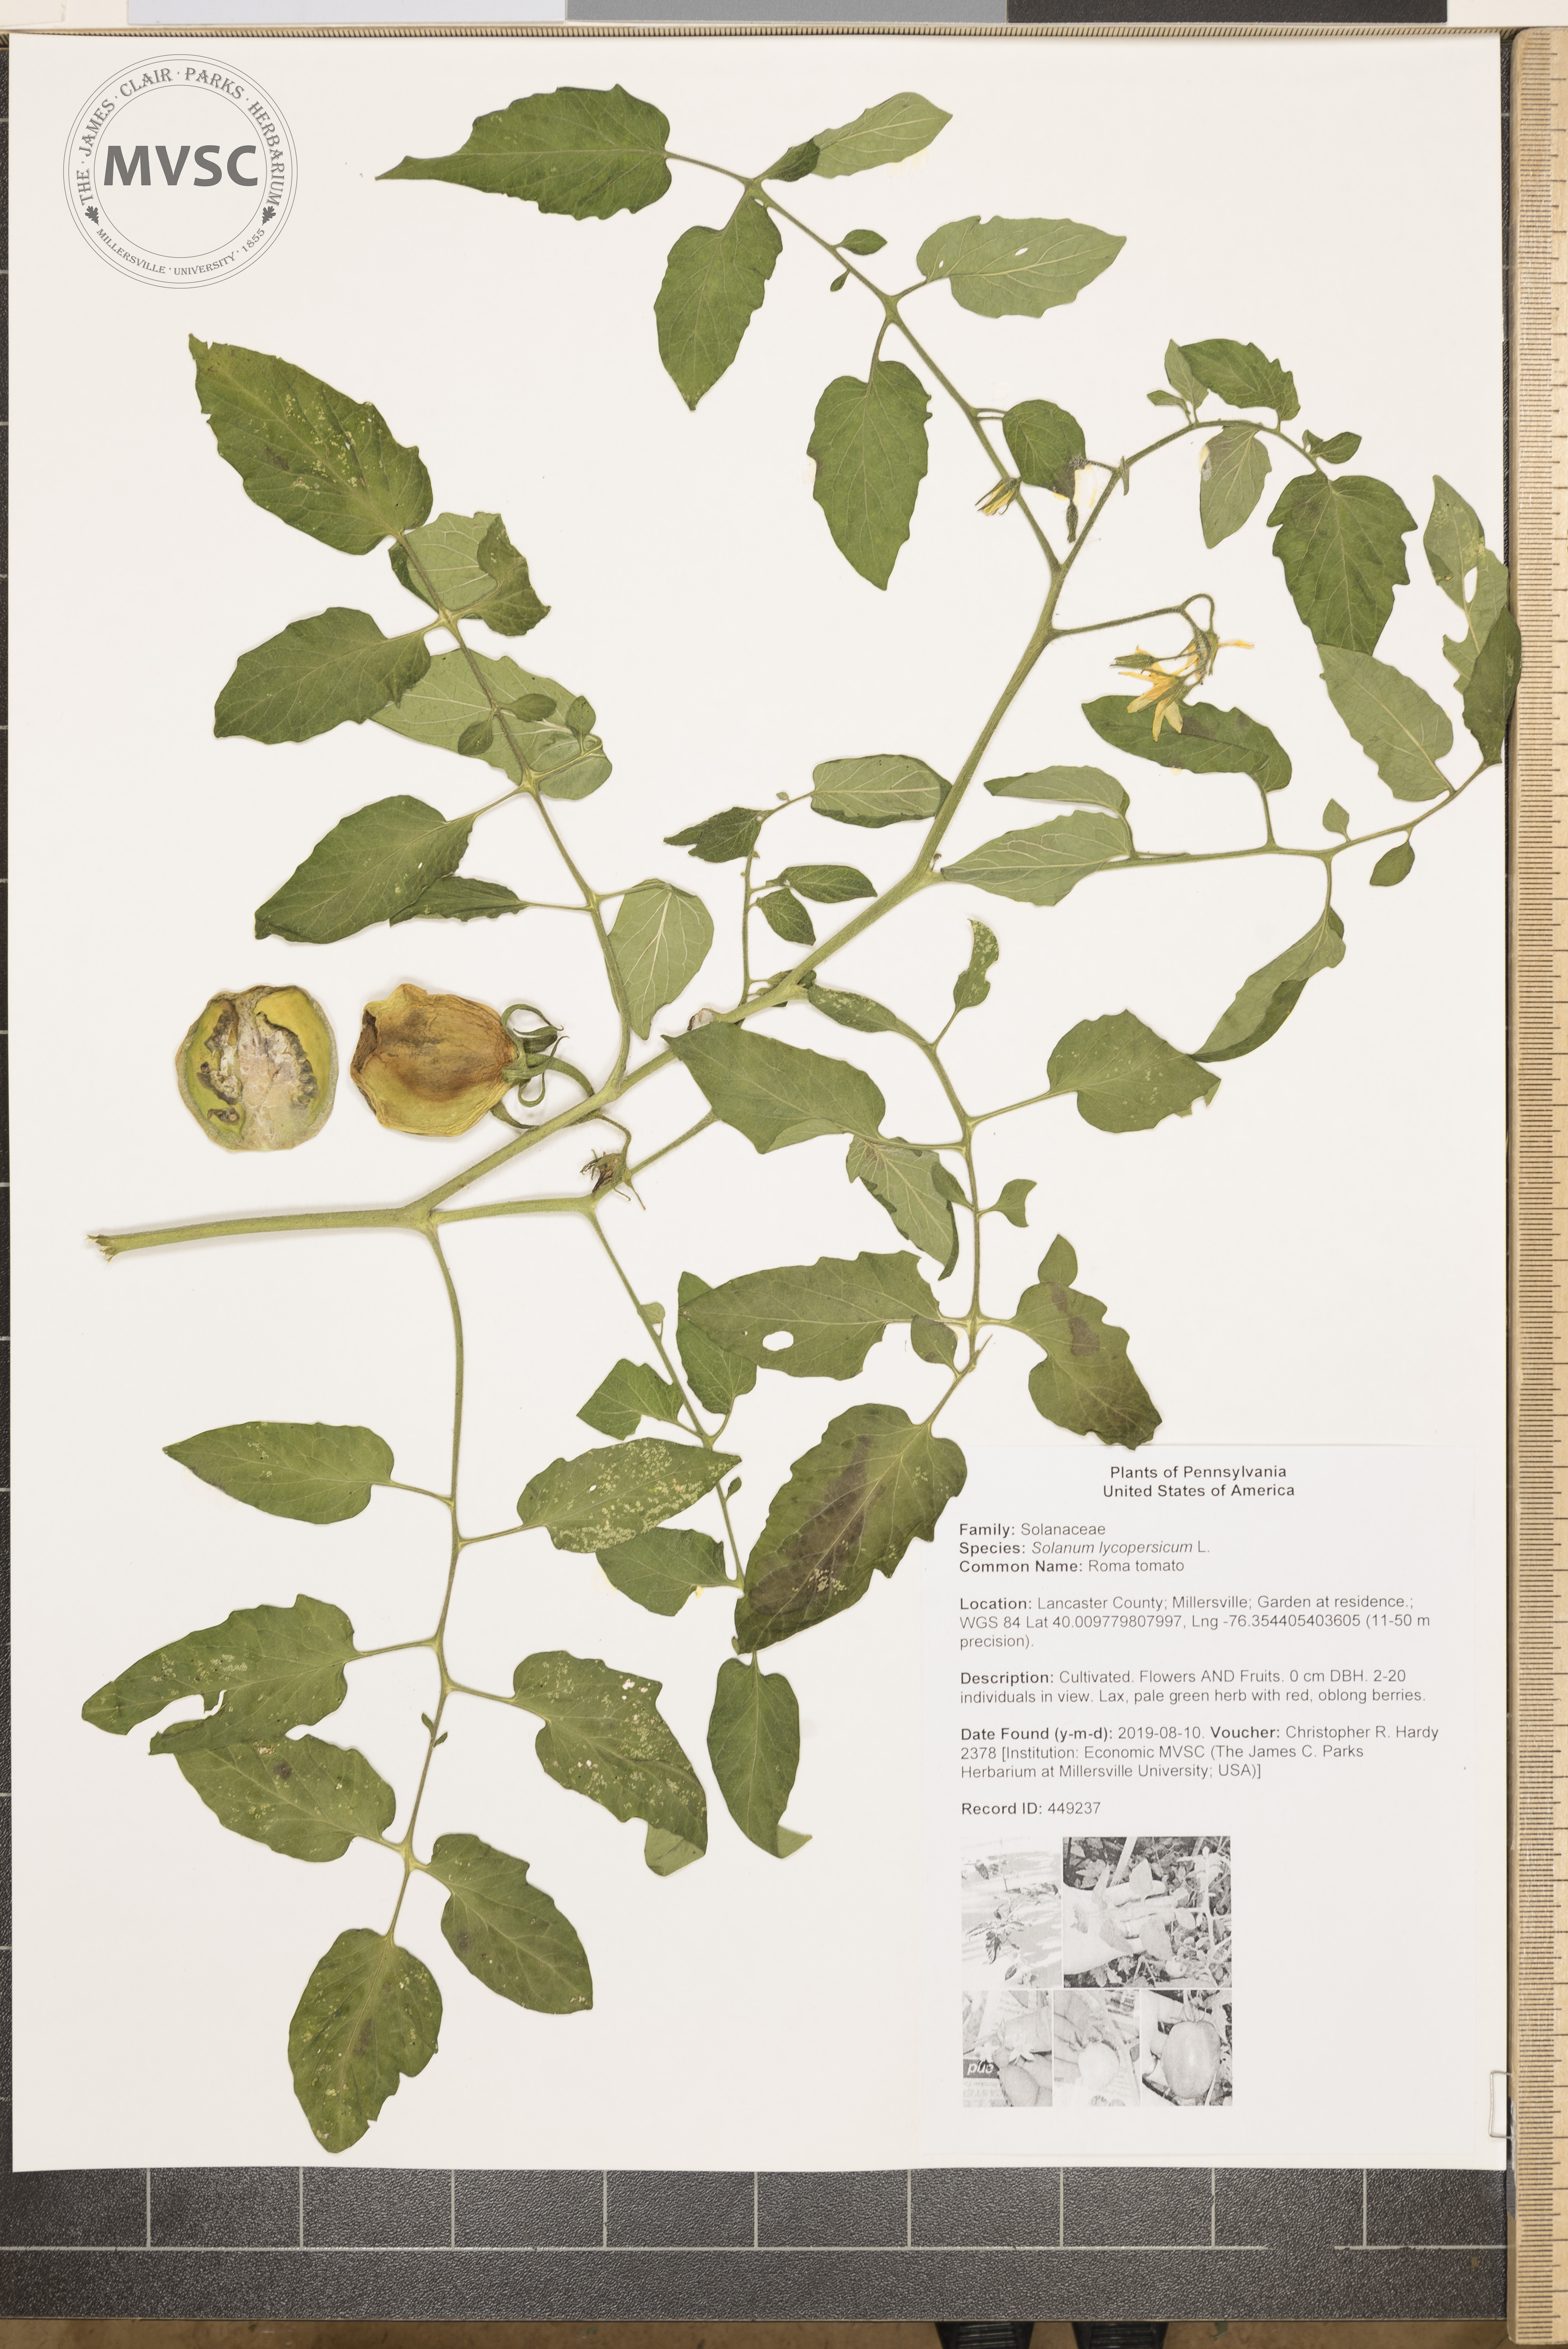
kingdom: Plantae
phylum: Tracheophyta
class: Magnoliopsida
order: Solanales
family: Solanaceae
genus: Solanum
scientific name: Solanum lycopersicum
